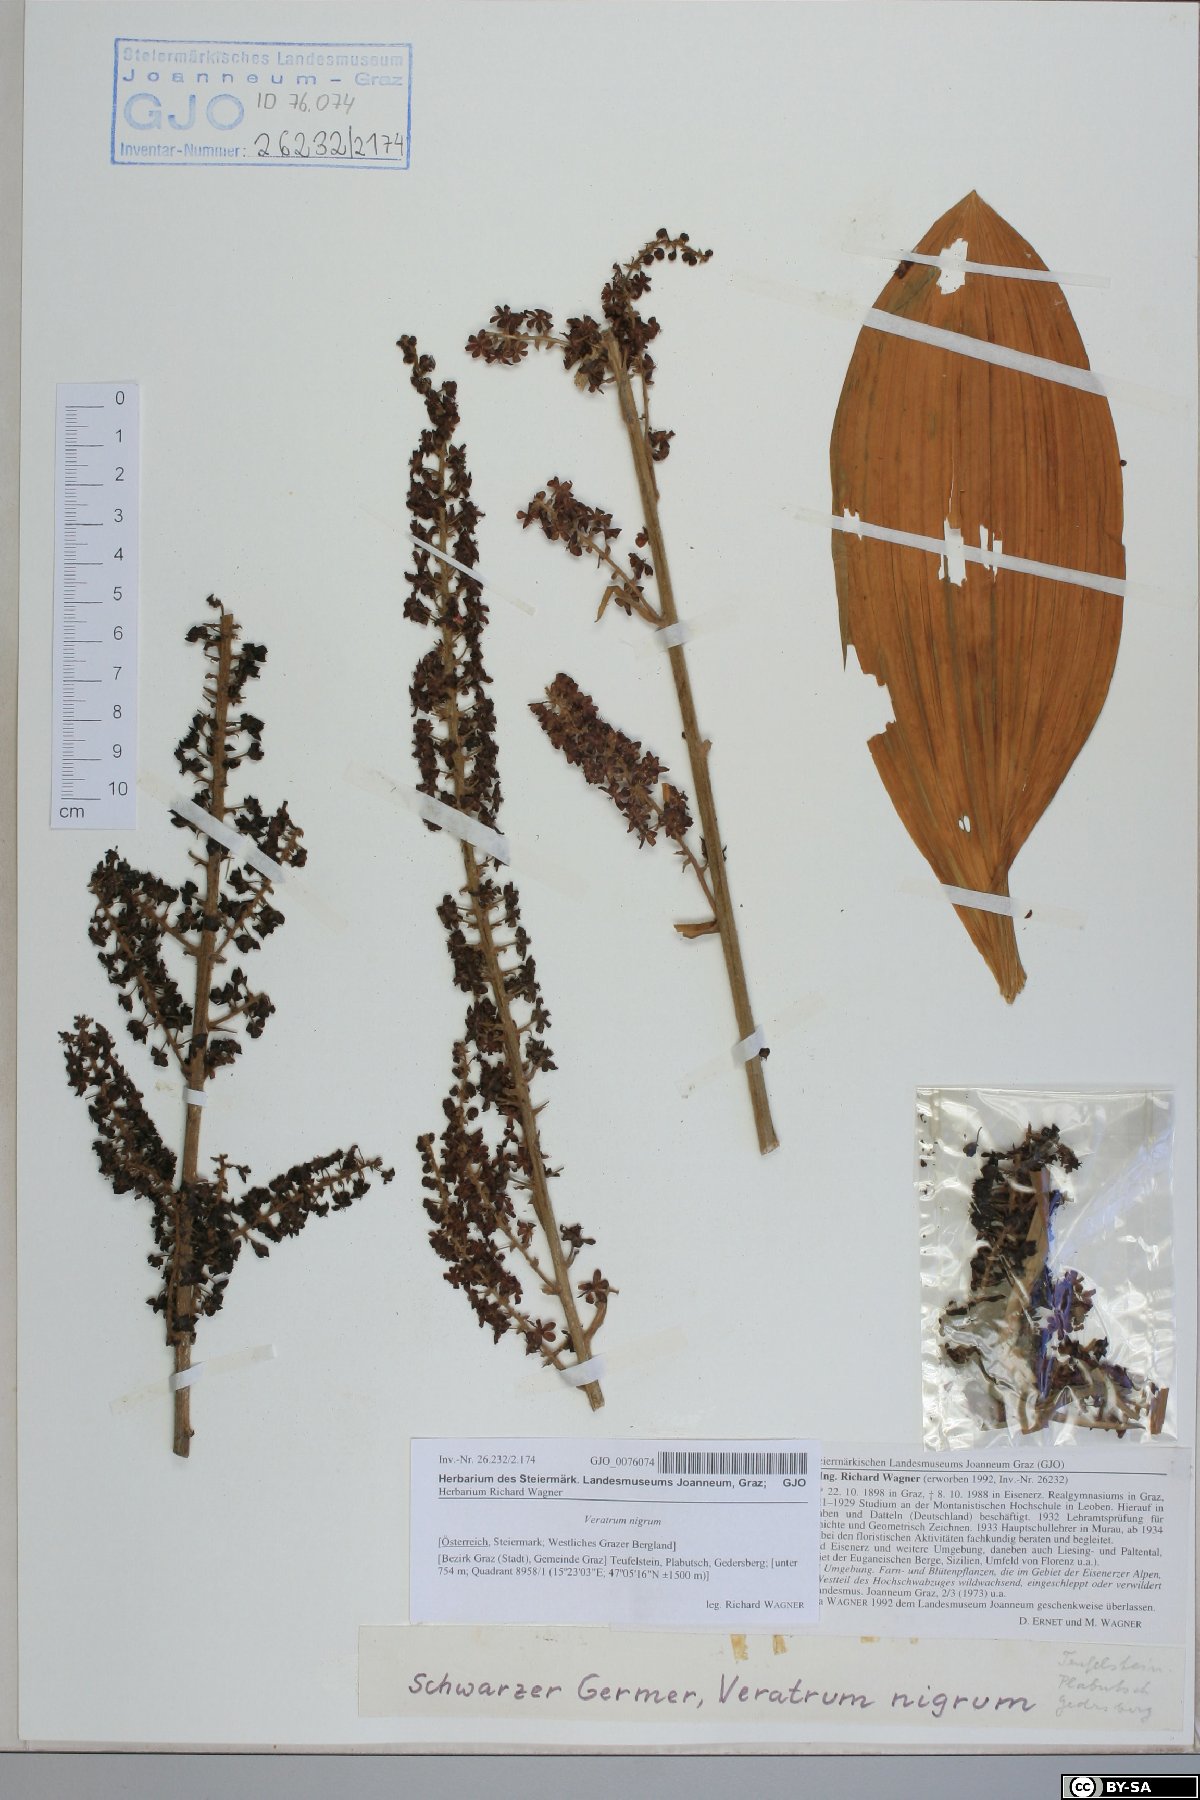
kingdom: Plantae
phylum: Tracheophyta
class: Liliopsida
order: Liliales
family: Melanthiaceae
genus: Veratrum
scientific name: Veratrum nigrum
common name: Black veratrum
